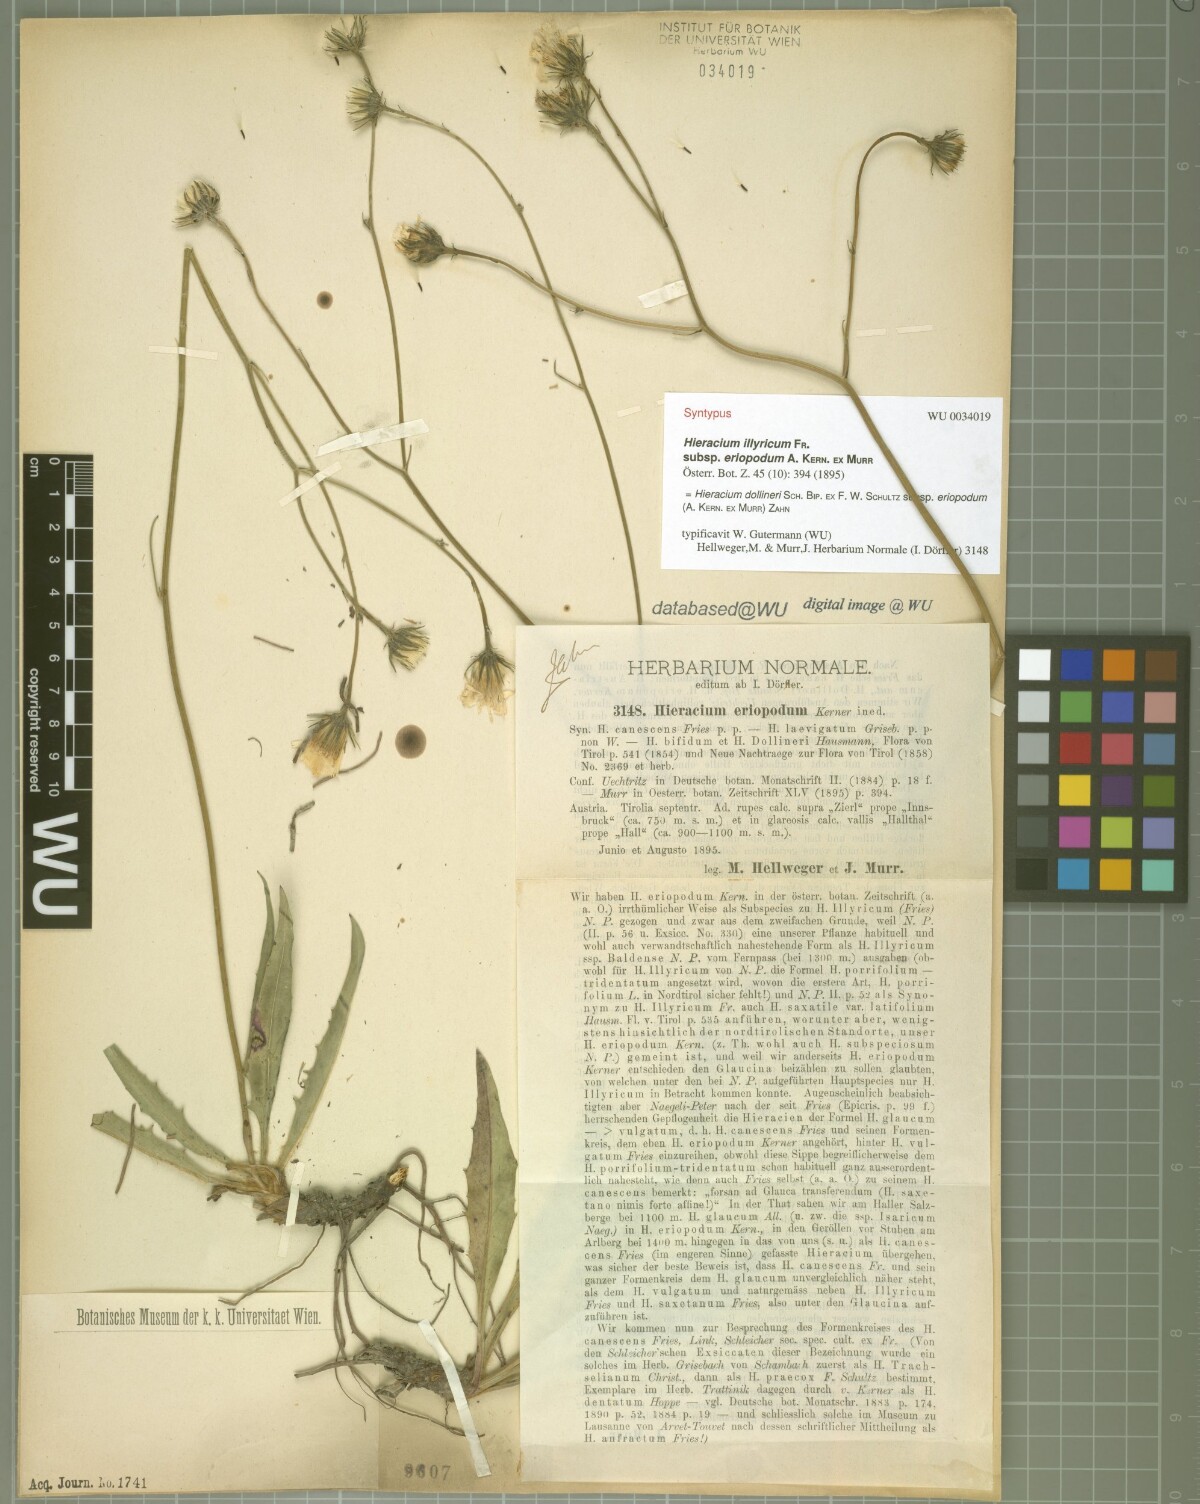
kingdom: Plantae
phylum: Tracheophyta
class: Magnoliopsida
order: Asterales
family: Asteraceae
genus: Hieracium
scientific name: Hieracium dollineri
